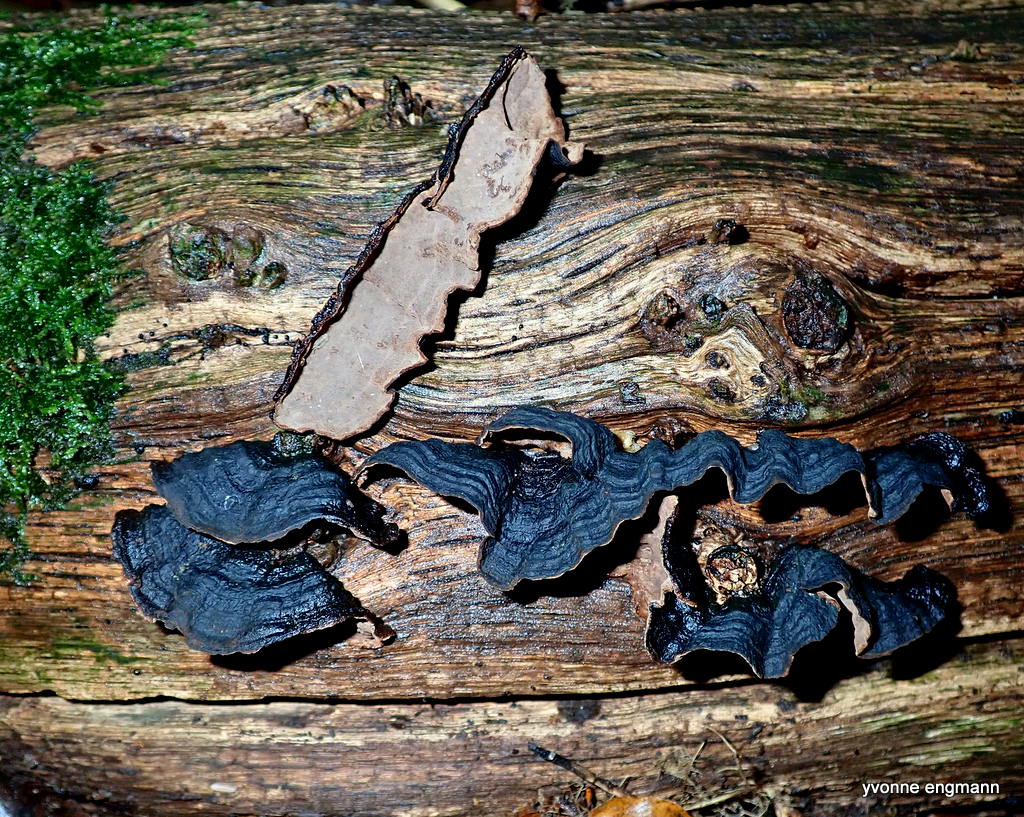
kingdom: Fungi
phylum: Basidiomycota
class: Agaricomycetes
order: Hymenochaetales
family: Hymenochaetaceae
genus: Hymenochaete
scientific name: Hymenochaete rubiginosa
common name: stiv ruslædersvamp
